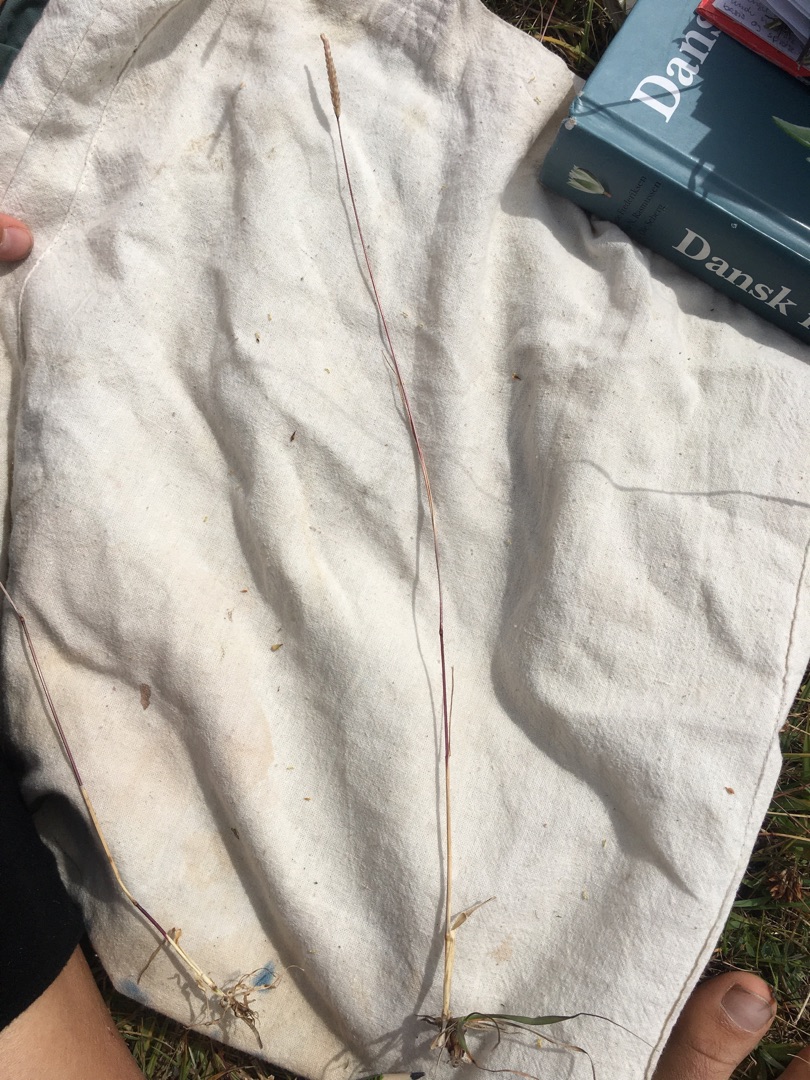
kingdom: Plantae
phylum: Tracheophyta
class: Liliopsida
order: Poales
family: Poaceae
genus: Cynosurus
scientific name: Cynosurus cristatus
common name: Kamgræs
